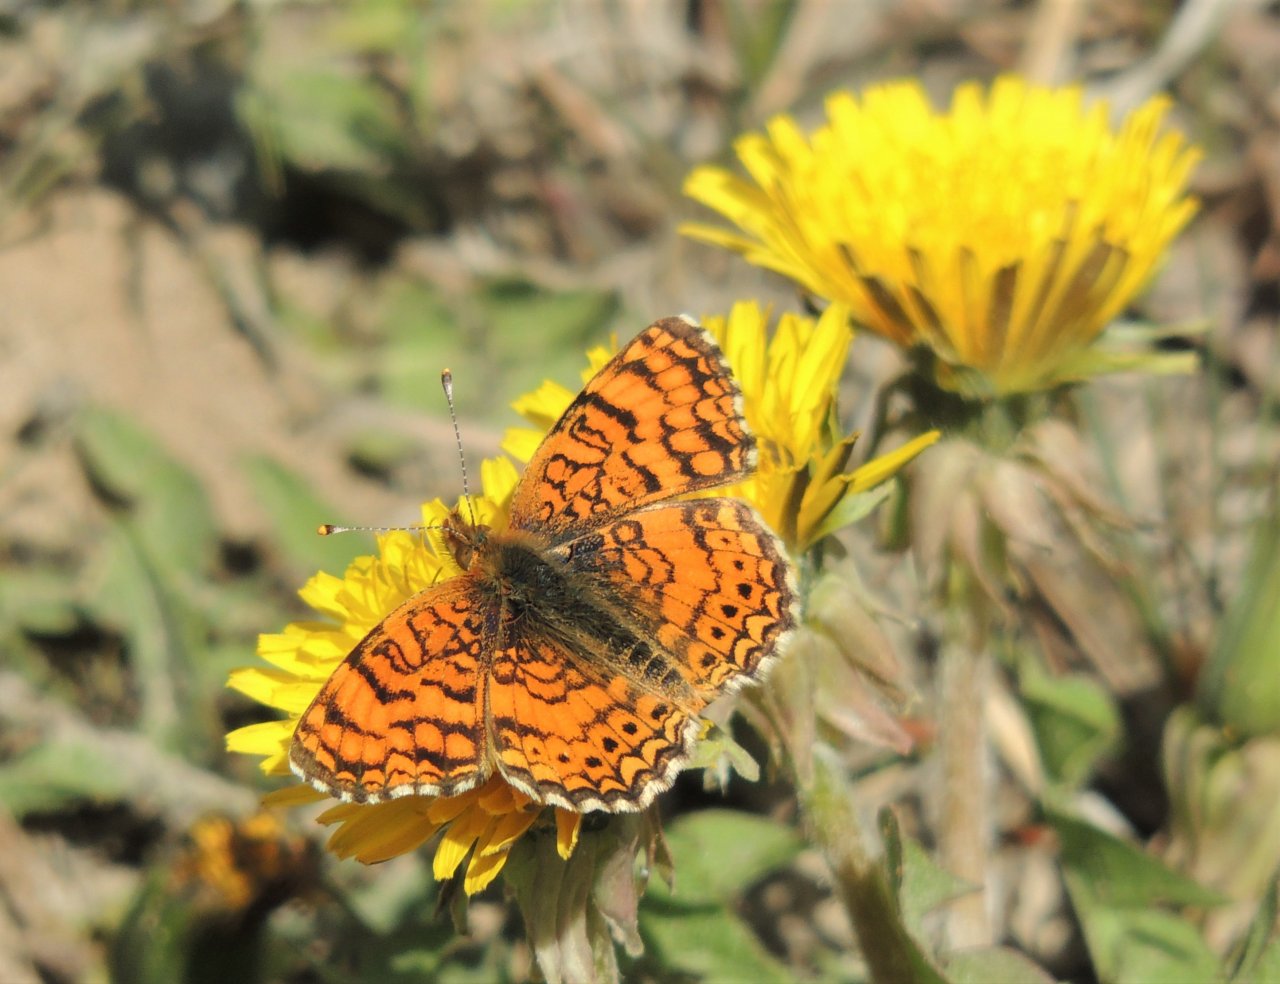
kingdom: Animalia
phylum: Arthropoda
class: Insecta
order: Lepidoptera
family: Nymphalidae
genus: Eresia
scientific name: Eresia aveyrona
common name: Mylitta Crescent
